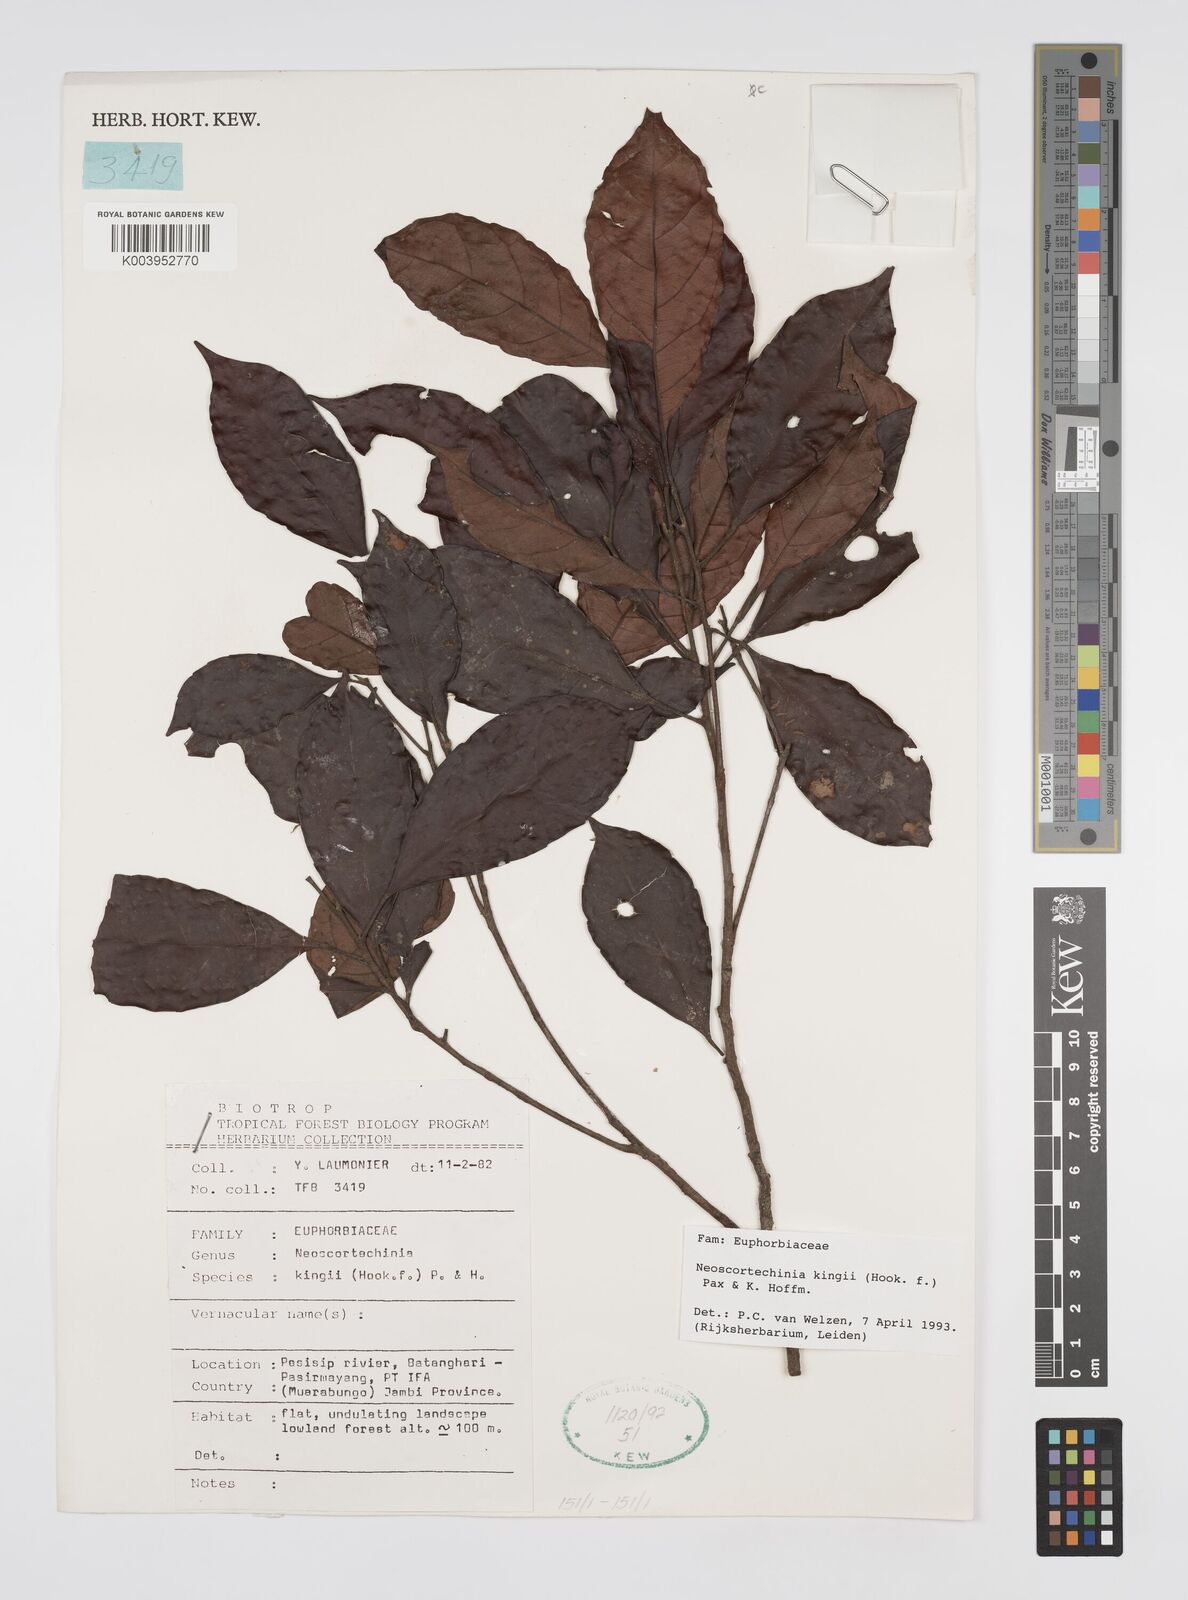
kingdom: Plantae
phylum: Tracheophyta
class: Magnoliopsida
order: Malpighiales
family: Euphorbiaceae
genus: Neoscortechinia
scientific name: Neoscortechinia kingii
